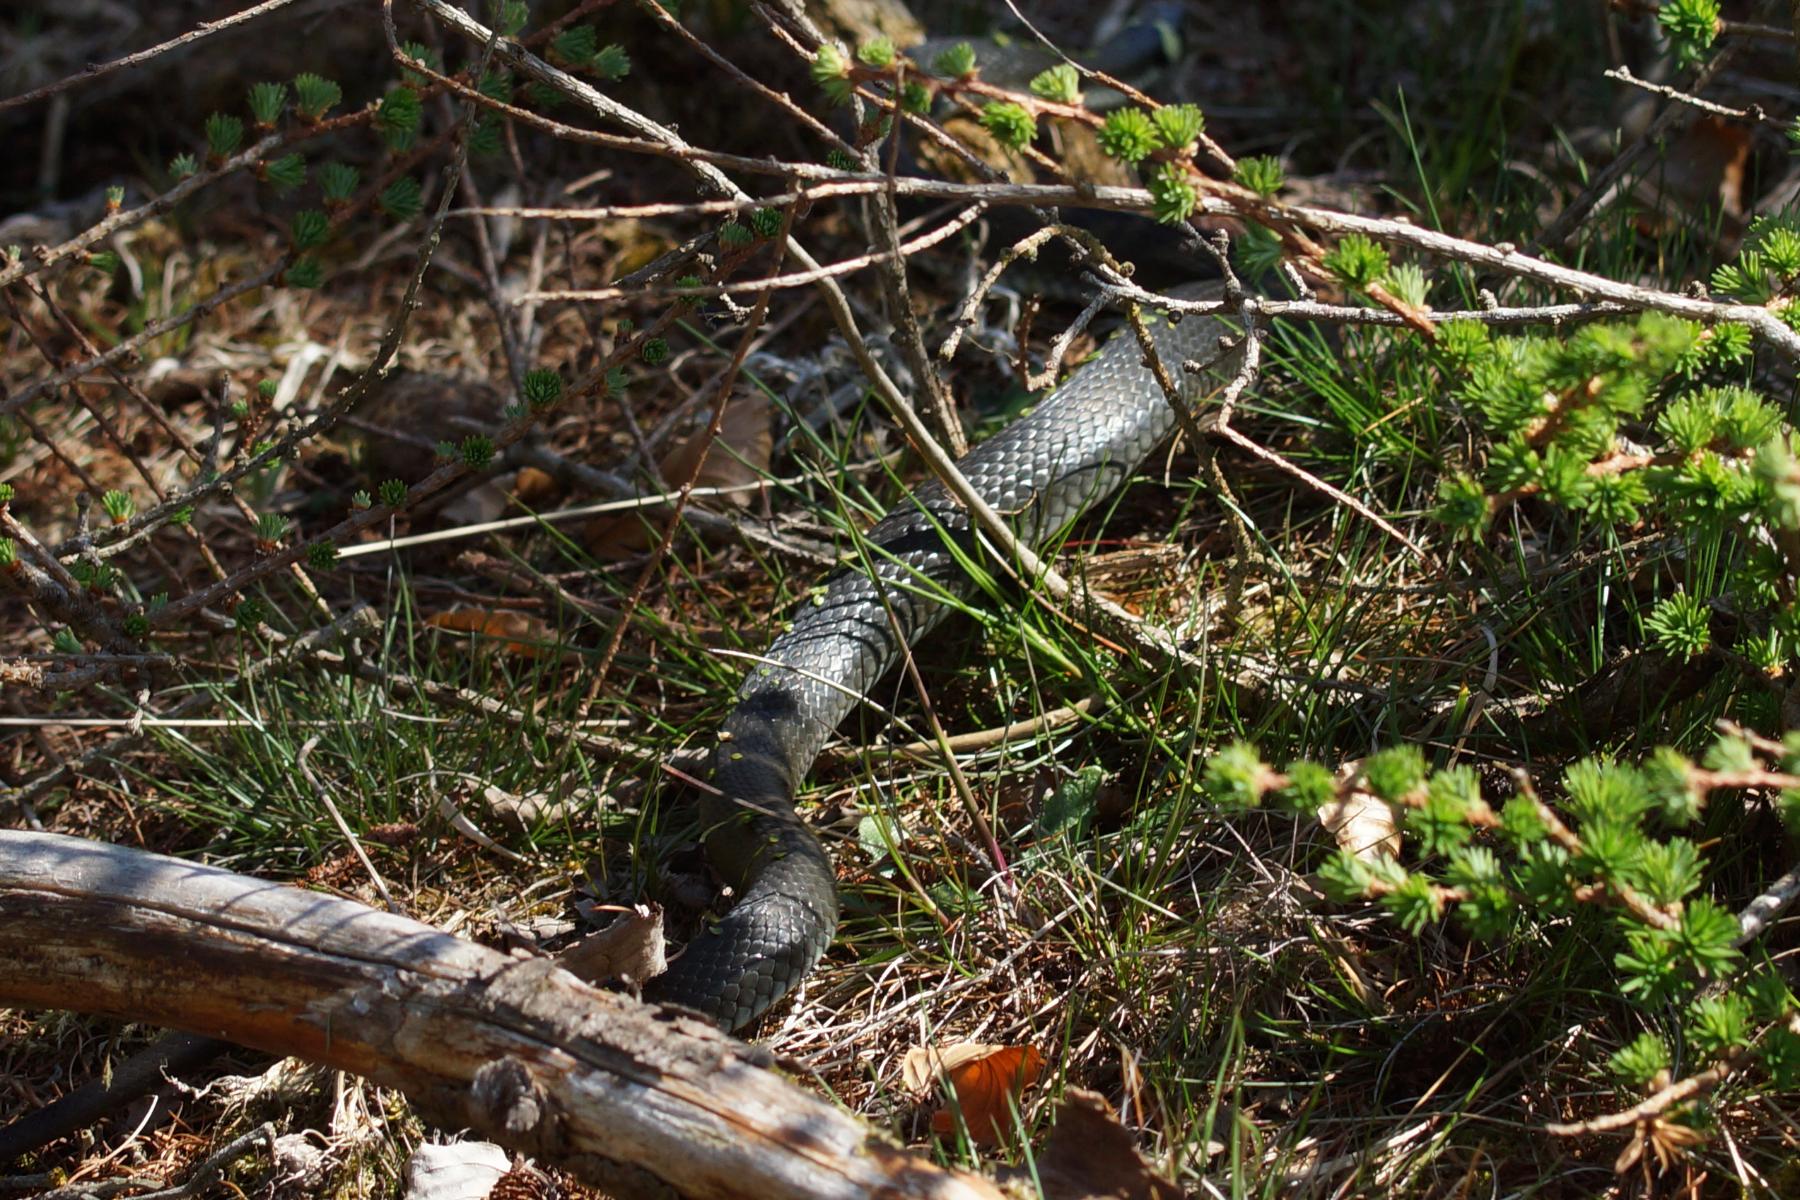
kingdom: Animalia
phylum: Chordata
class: Squamata
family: Colubridae
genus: Natrix
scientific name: Natrix natrix
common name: Snog
